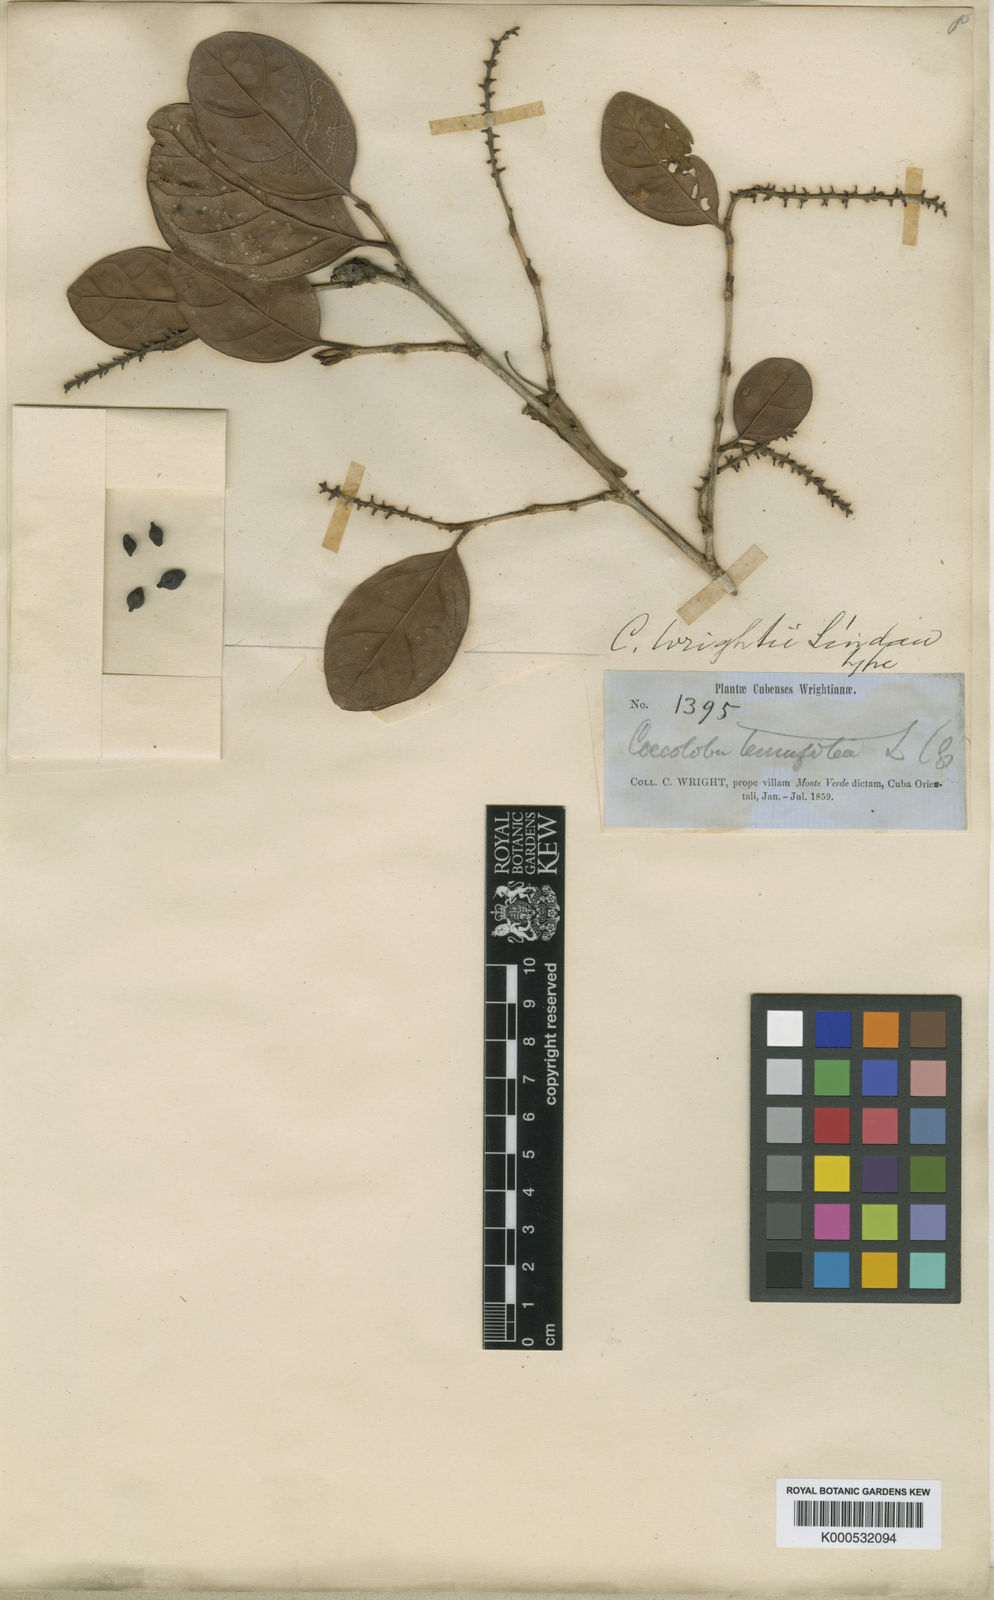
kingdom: Plantae
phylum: Tracheophyta
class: Magnoliopsida
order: Caryophyllales
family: Polygonaceae
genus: Coccoloba
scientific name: Coccoloba wrightii
